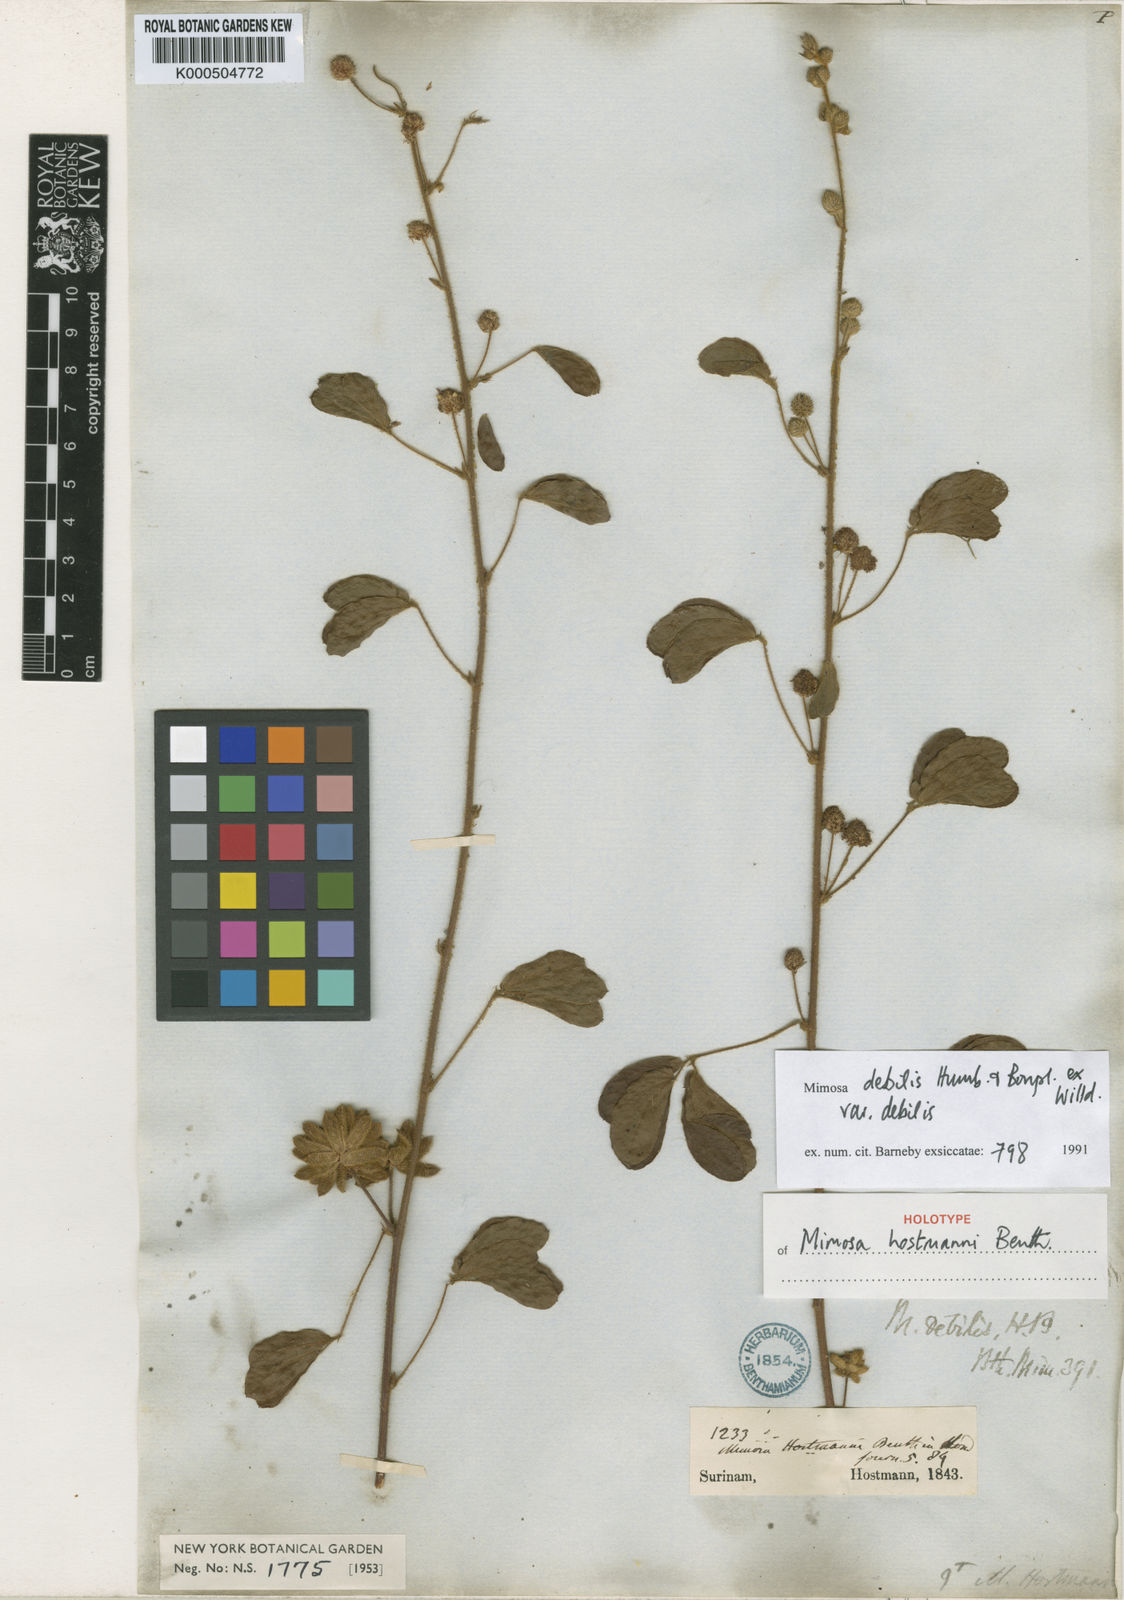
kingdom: Plantae
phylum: Tracheophyta
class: Magnoliopsida
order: Fabales
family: Fabaceae
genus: Mimosa
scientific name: Mimosa debilis
